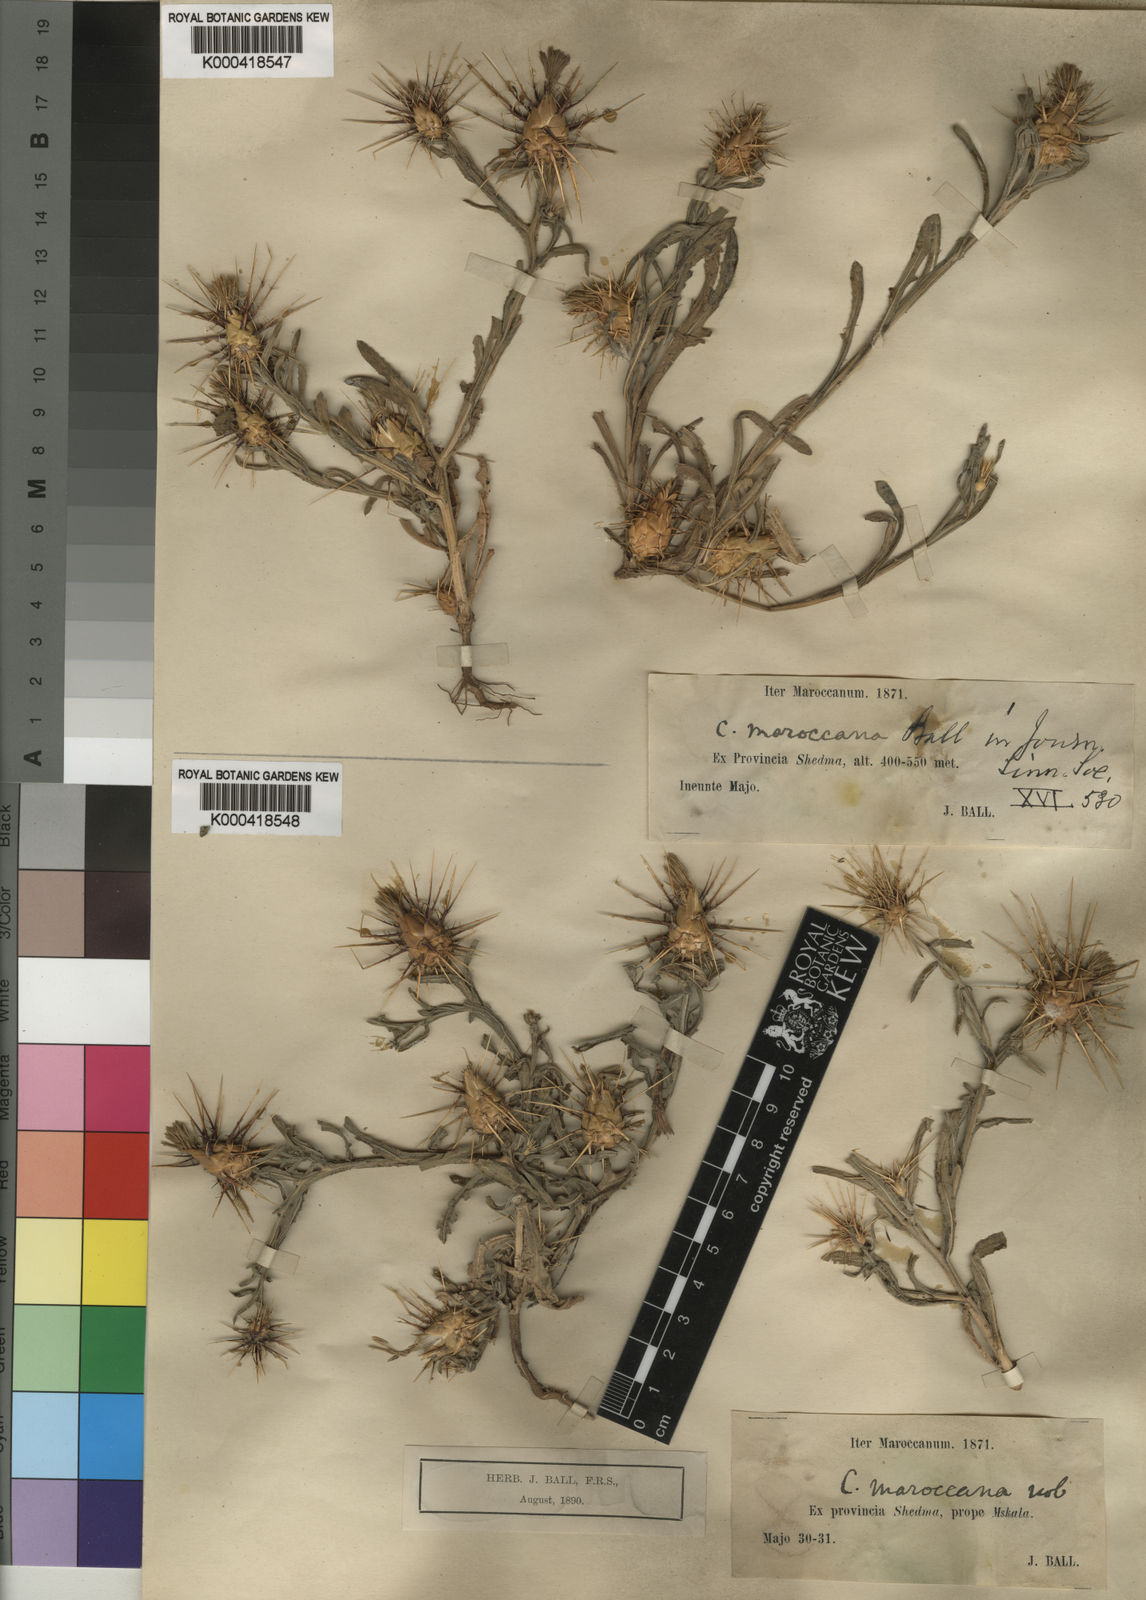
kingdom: Plantae
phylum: Tracheophyta
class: Magnoliopsida
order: Asterales
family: Asteraceae
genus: Centaurea
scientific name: Centaurea maroccana
